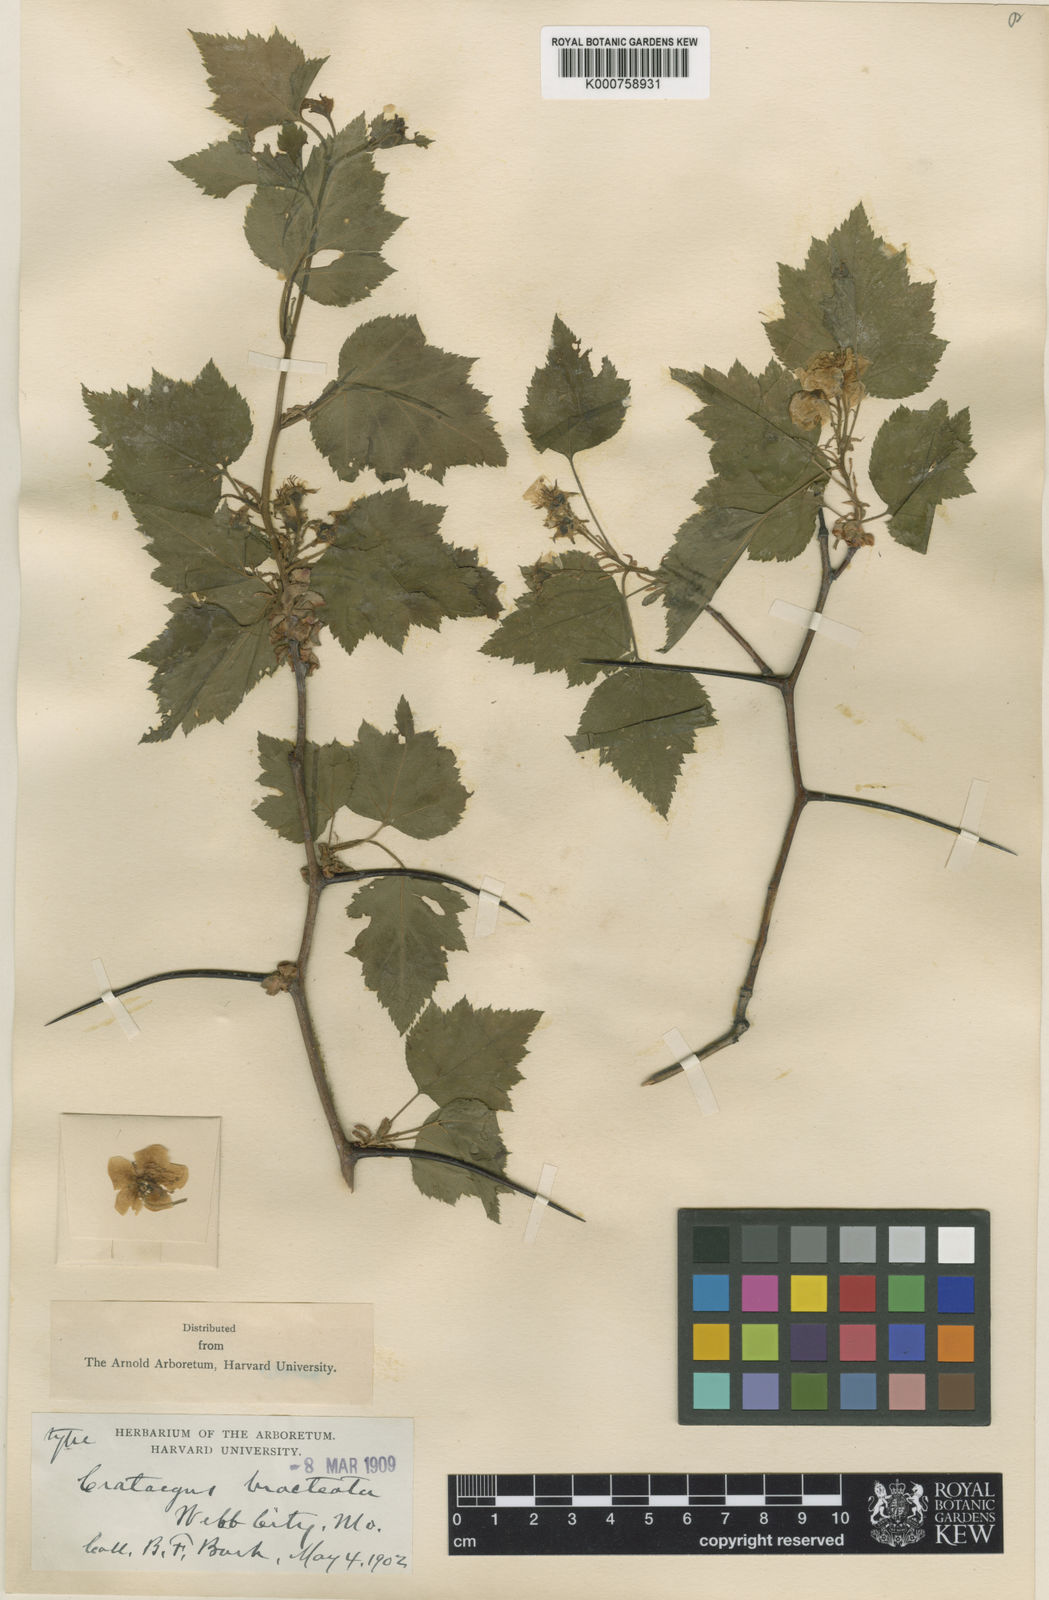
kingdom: Plantae
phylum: Tracheophyta
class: Magnoliopsida
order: Rosales
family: Rosaceae
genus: Crataegus
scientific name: Crataegus
